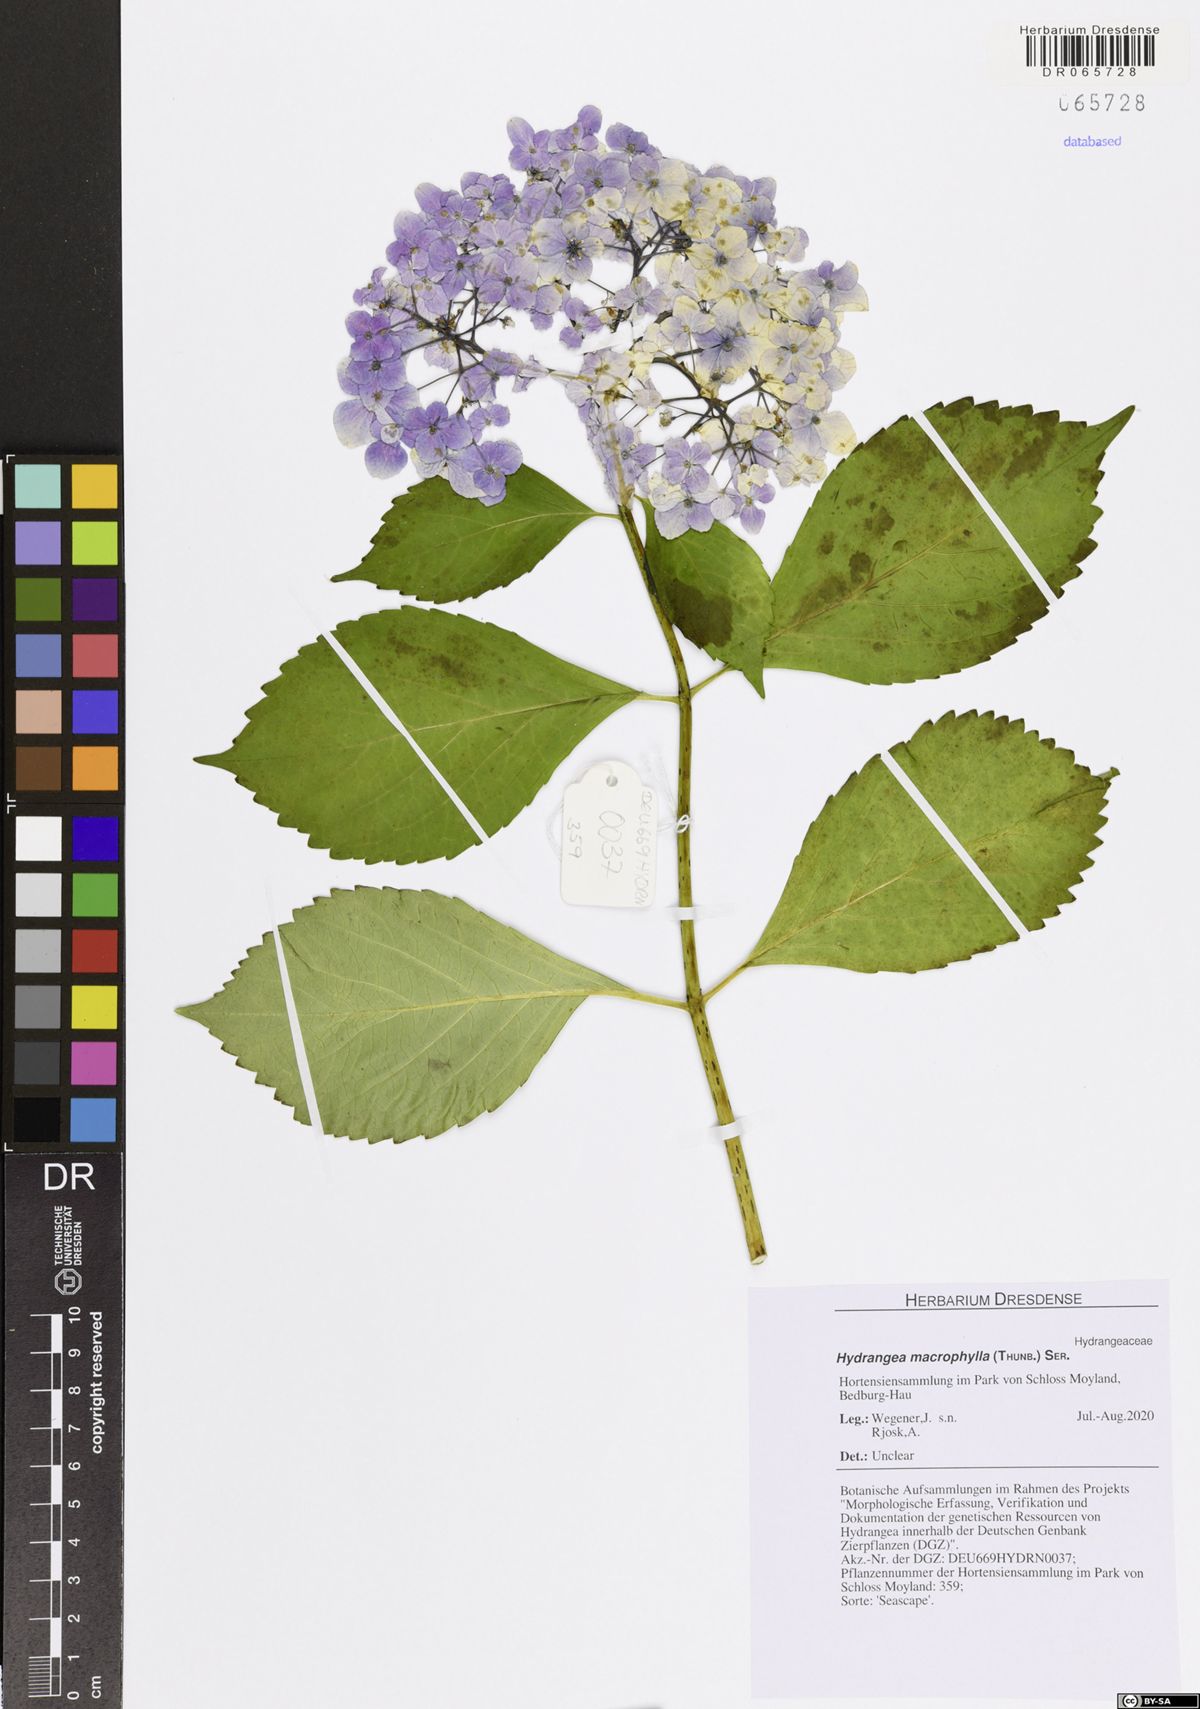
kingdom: Plantae
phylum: Tracheophyta
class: Magnoliopsida
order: Cornales
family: Hydrangeaceae
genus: Hydrangea
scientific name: Hydrangea macrophylla
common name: Hydrangea
